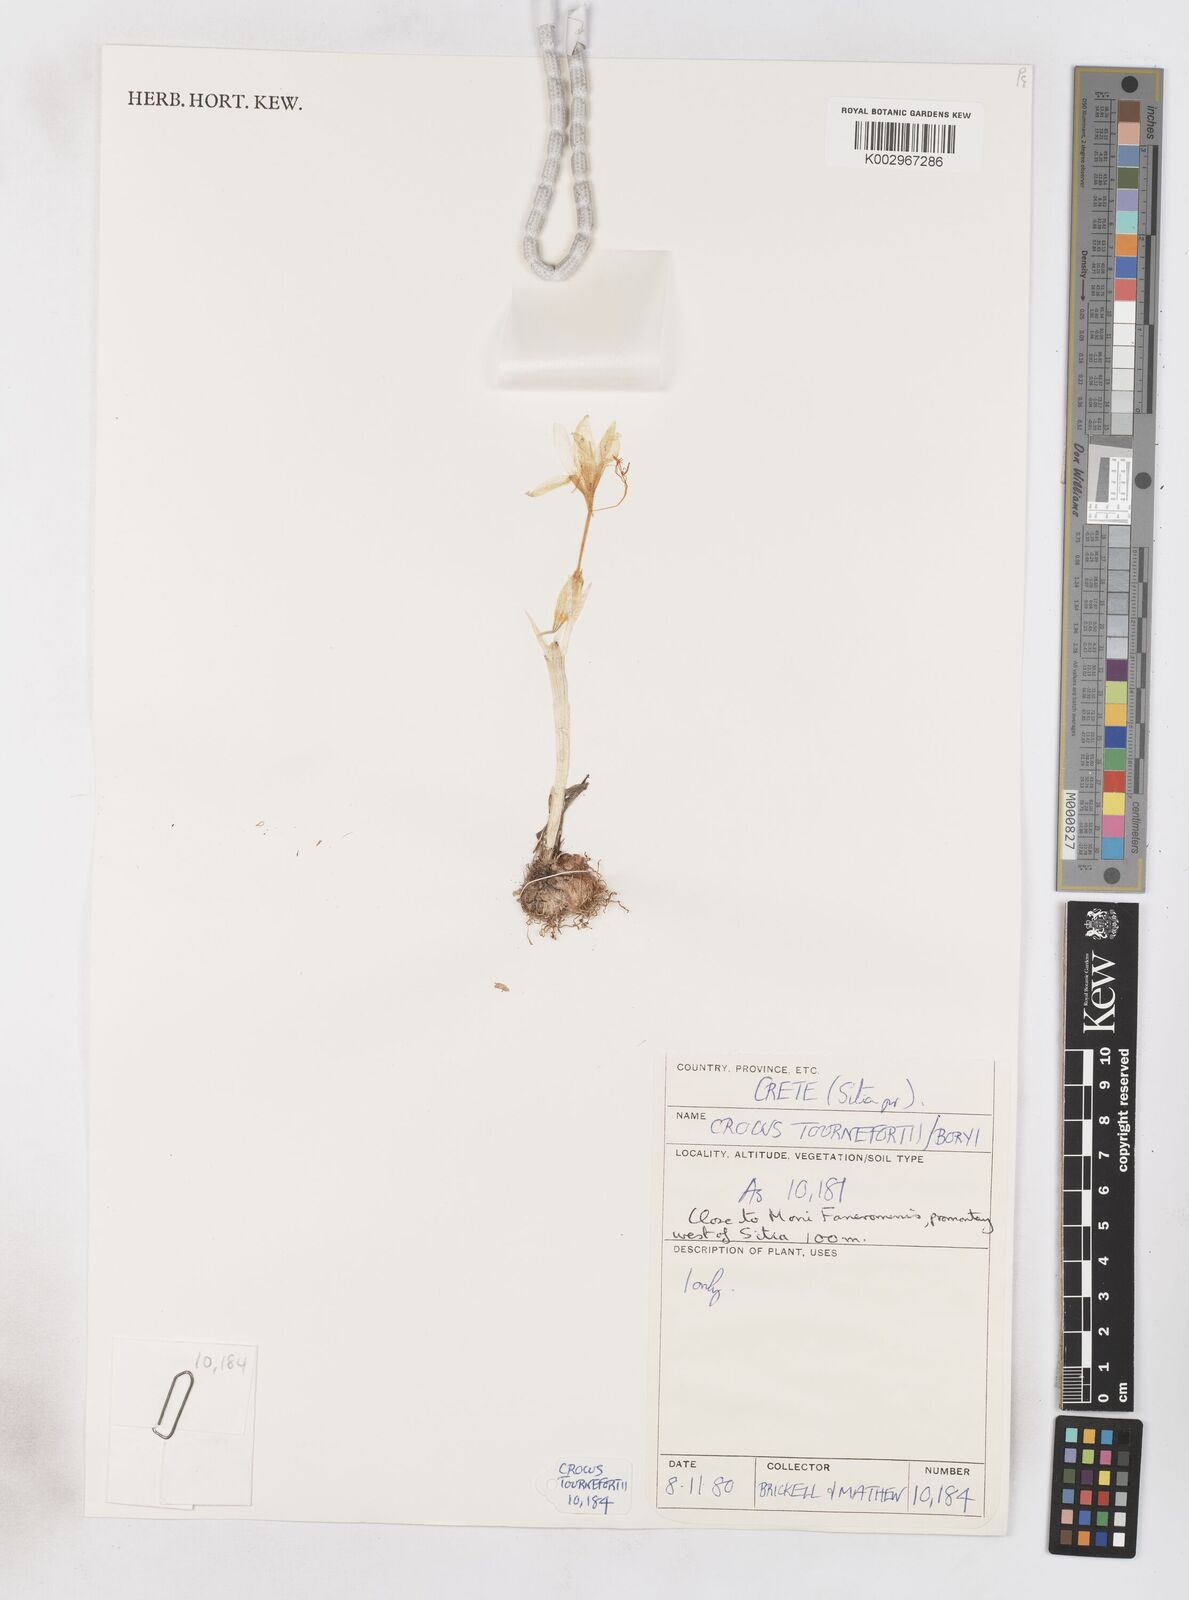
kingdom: Plantae
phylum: Tracheophyta
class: Liliopsida
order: Asparagales
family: Iridaceae
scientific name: Iridaceae
